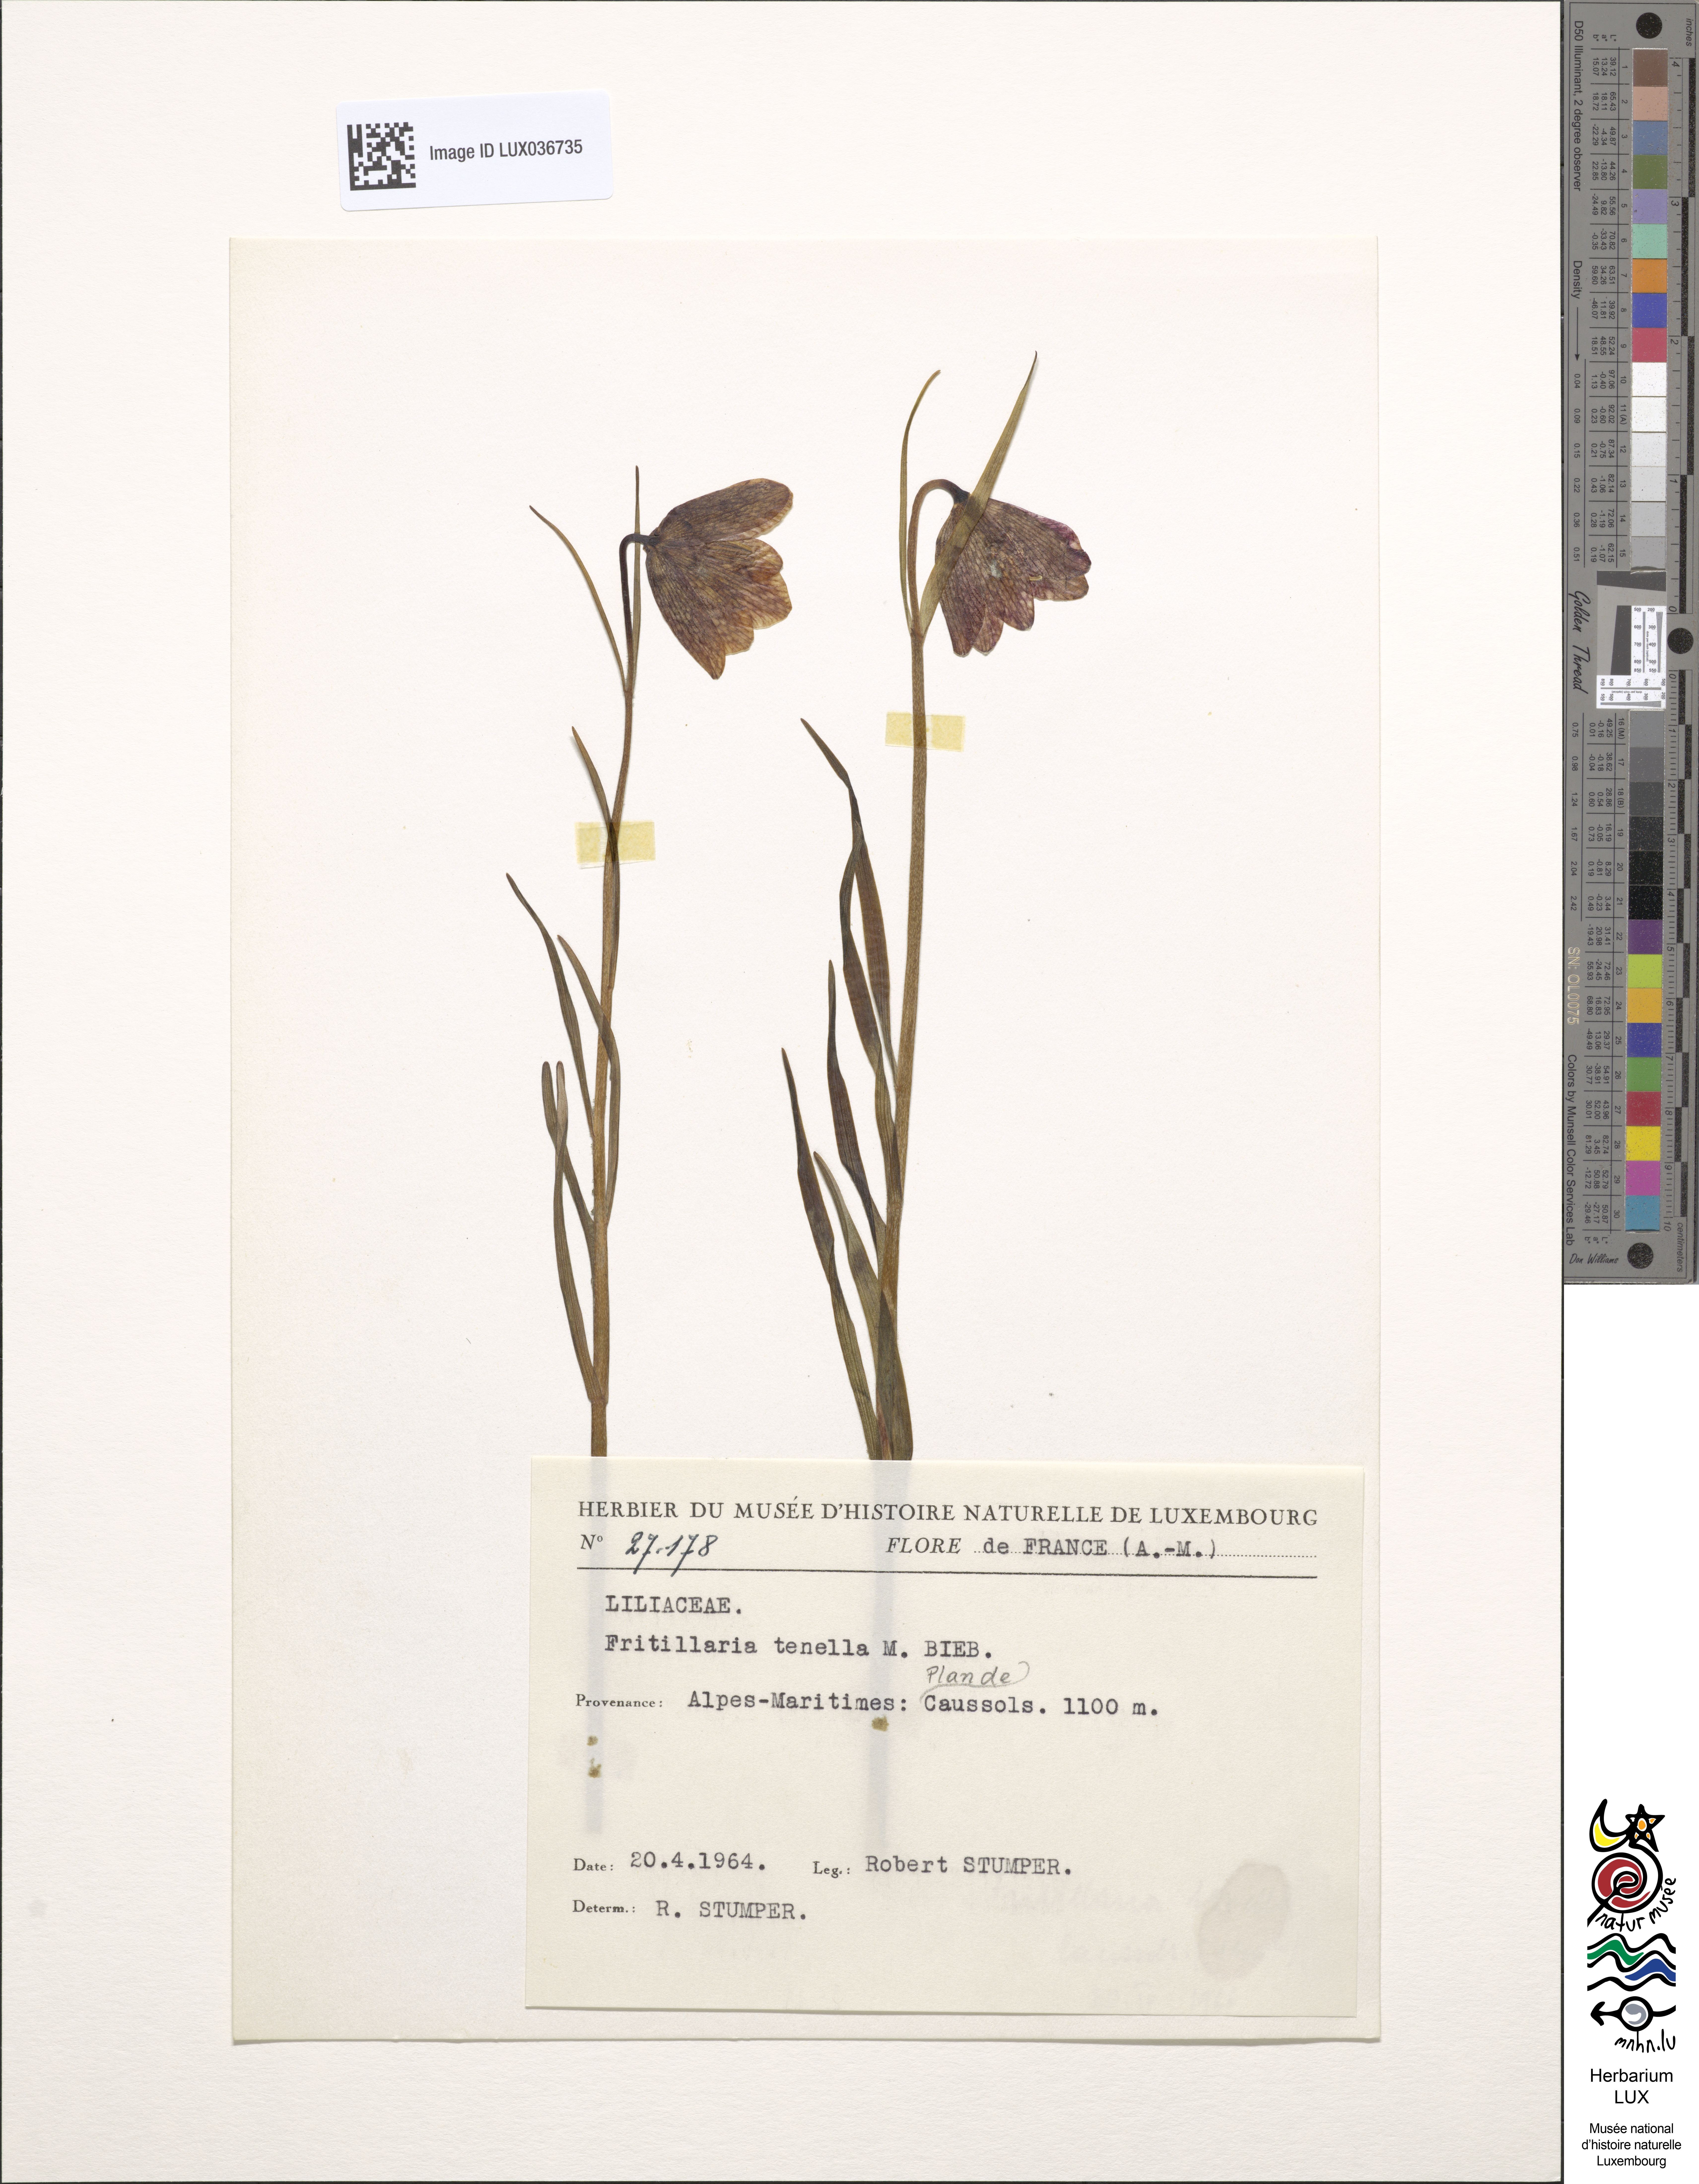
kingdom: Plantae
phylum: Tracheophyta
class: Liliopsida
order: Liliales
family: Liliaceae
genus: Fritillaria
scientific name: Fritillaria orientalis
